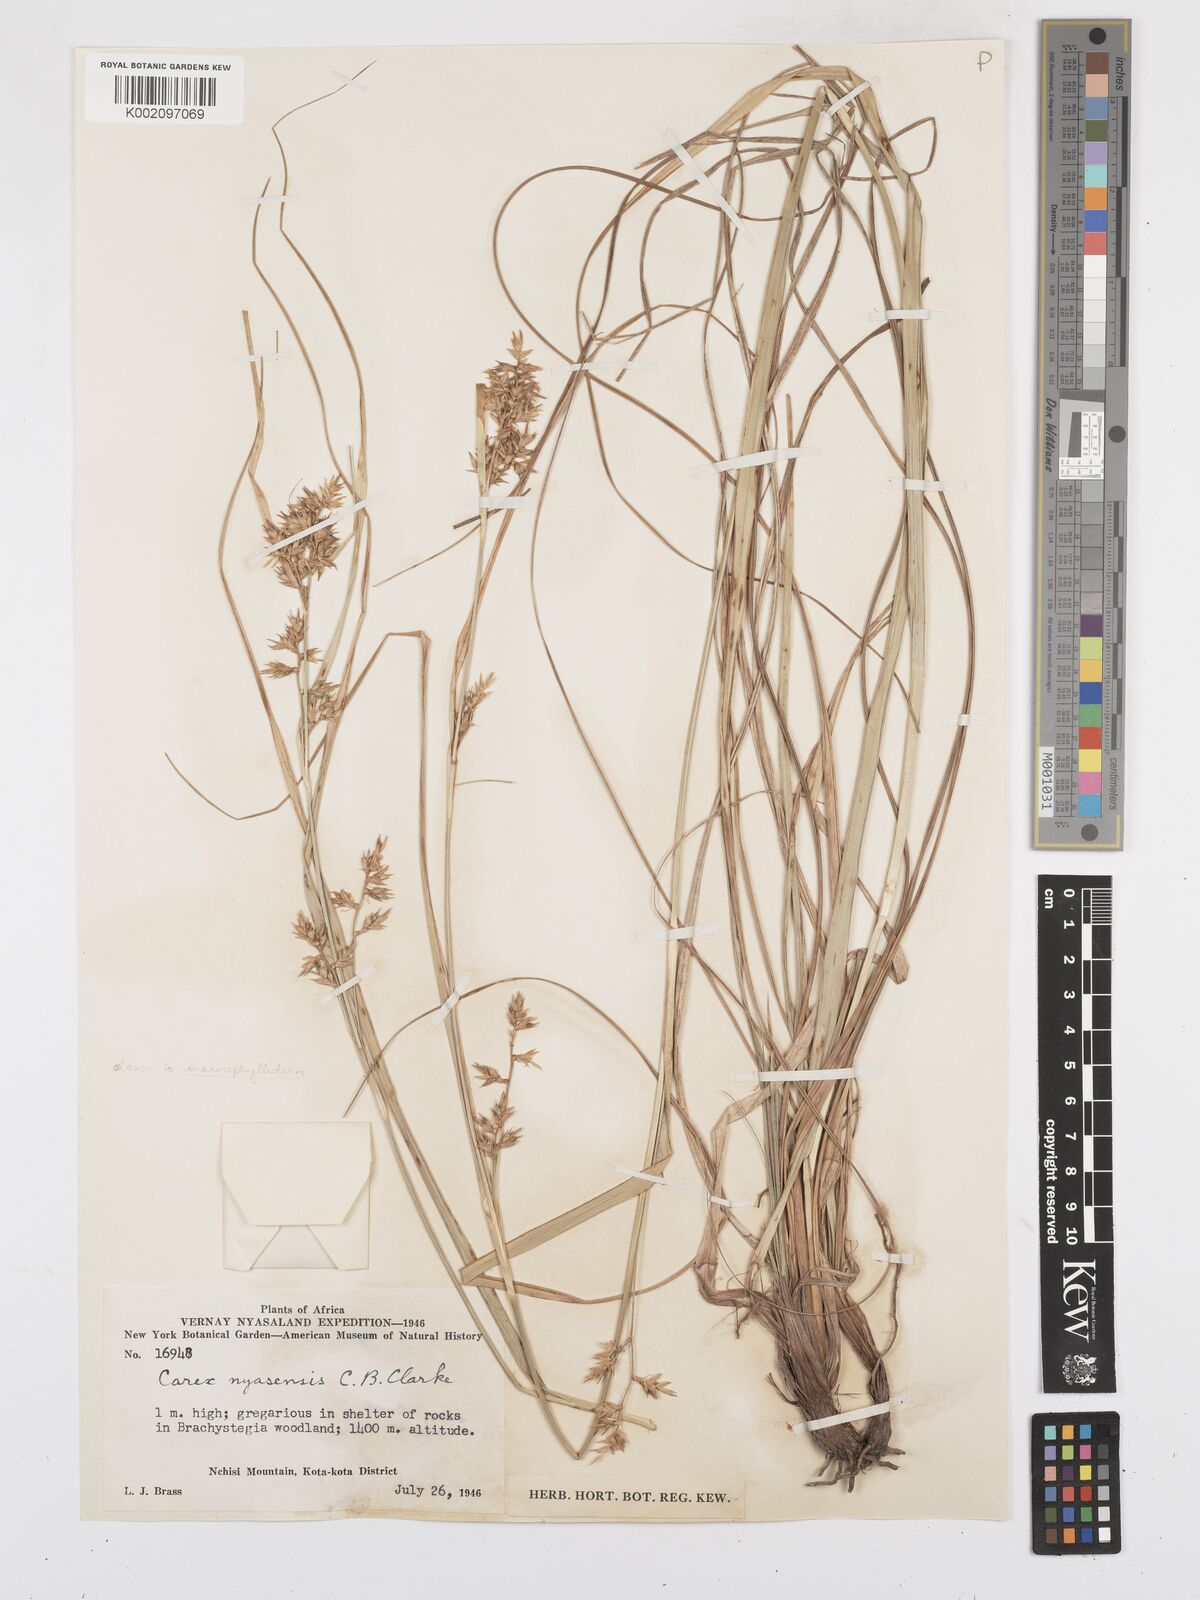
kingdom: Plantae
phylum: Tracheophyta
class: Liliopsida
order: Poales
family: Cyperaceae
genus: Carex
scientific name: Carex macrophyllidion
